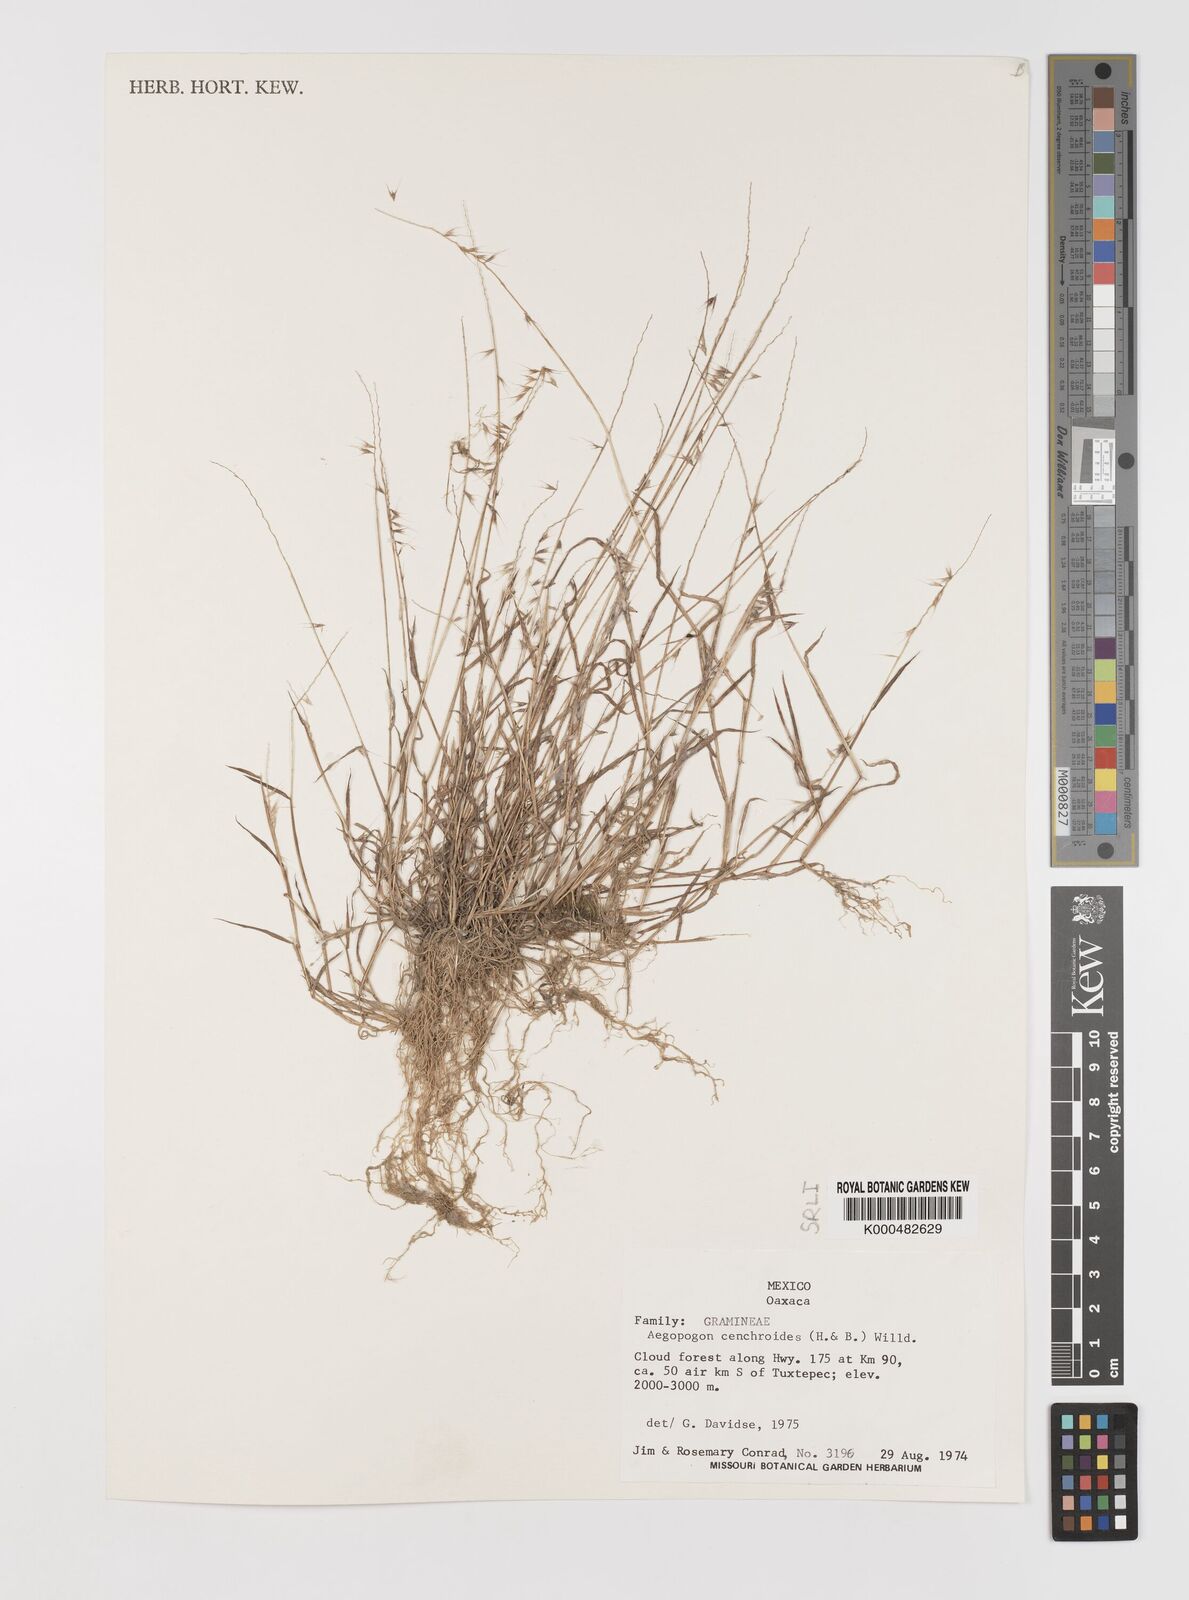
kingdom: Plantae
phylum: Tracheophyta
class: Liliopsida
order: Poales
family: Poaceae
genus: Muhlenbergia
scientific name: Muhlenbergia
